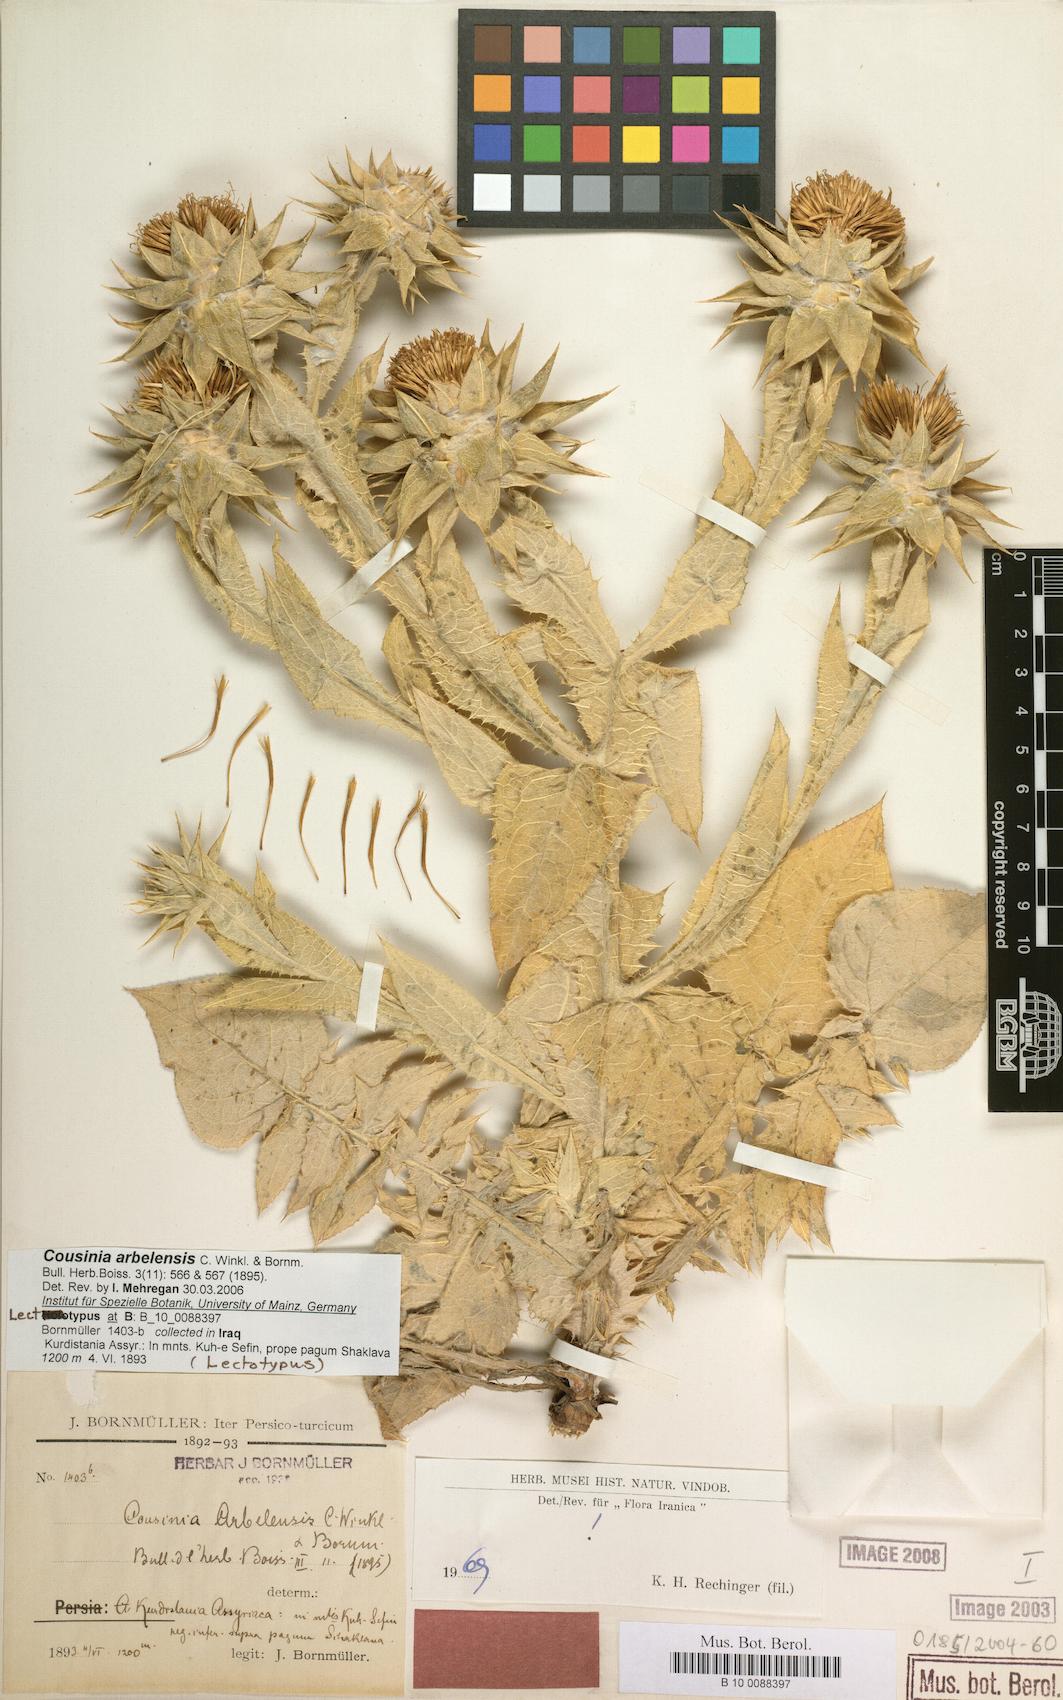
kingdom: Plantae
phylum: Tracheophyta
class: Magnoliopsida
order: Asterales
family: Asteraceae
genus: Cousinia
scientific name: Cousinia aintabensis
